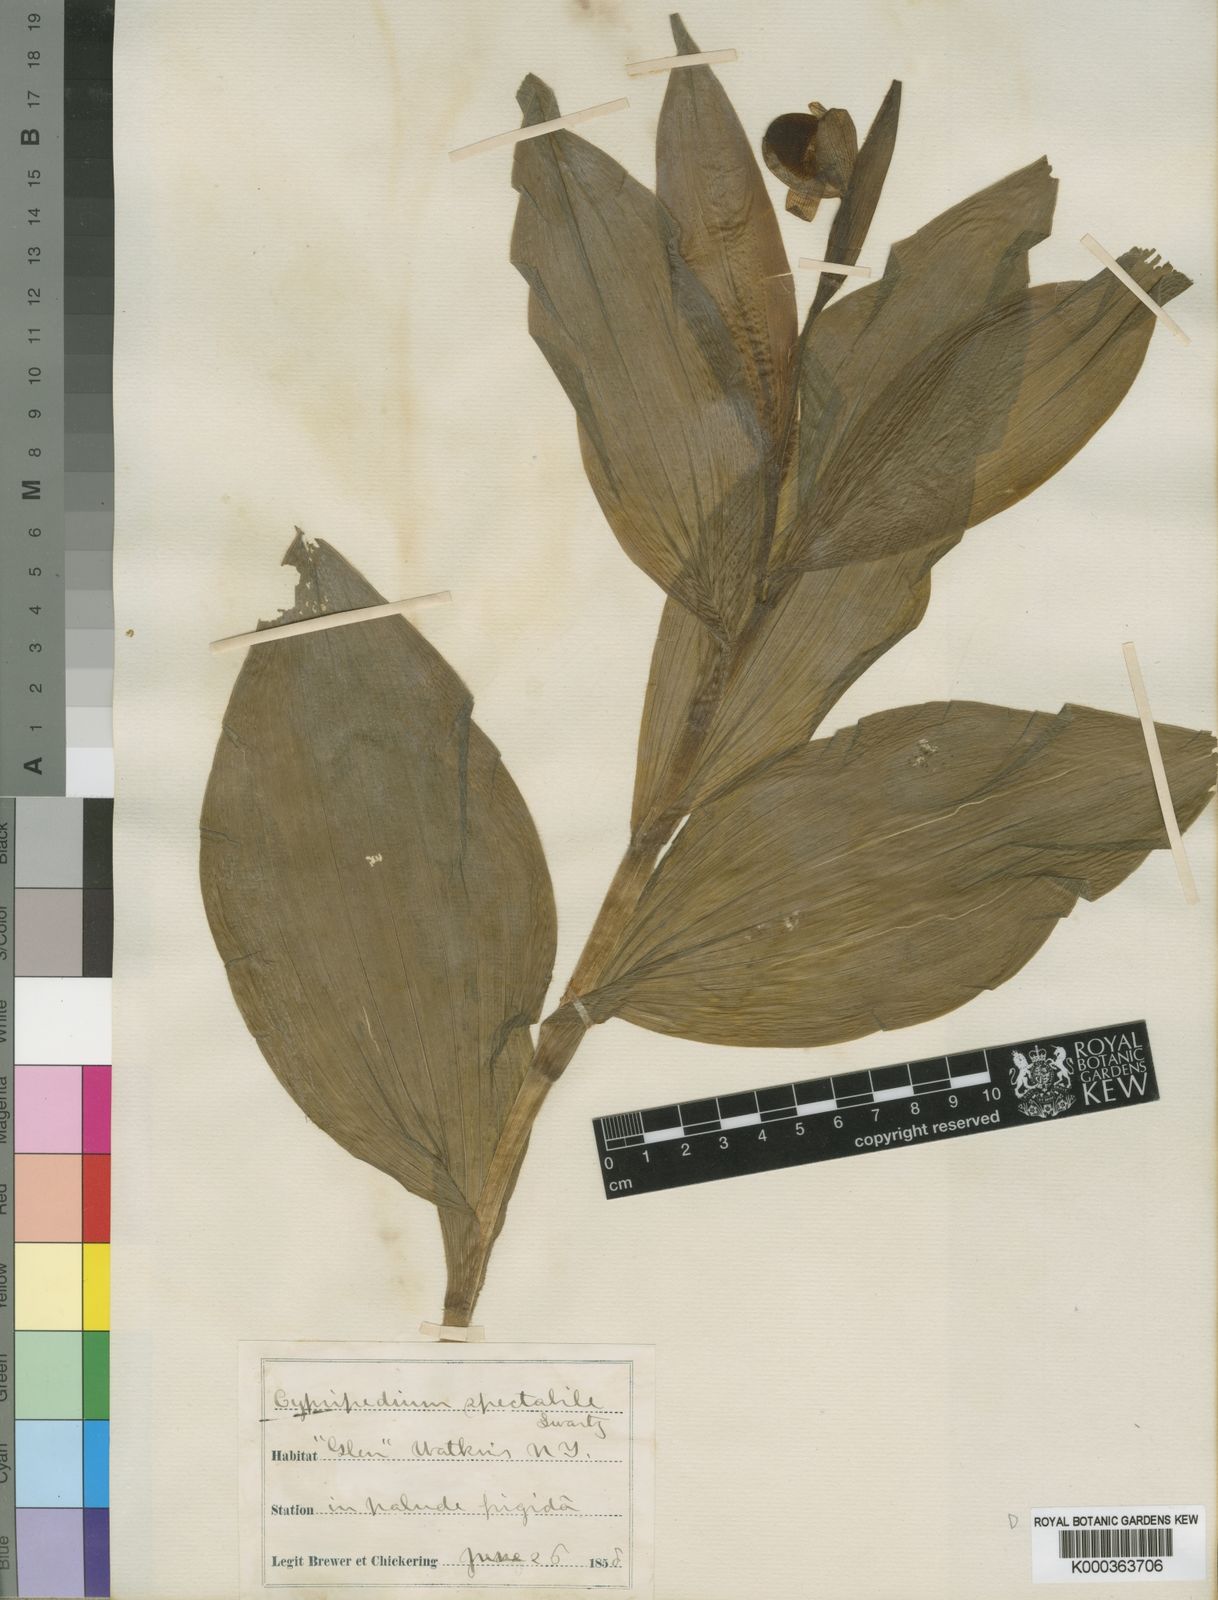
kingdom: Plantae
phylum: Tracheophyta
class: Liliopsida
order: Asparagales
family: Orchidaceae
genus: Cypripedium
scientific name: Cypripedium
